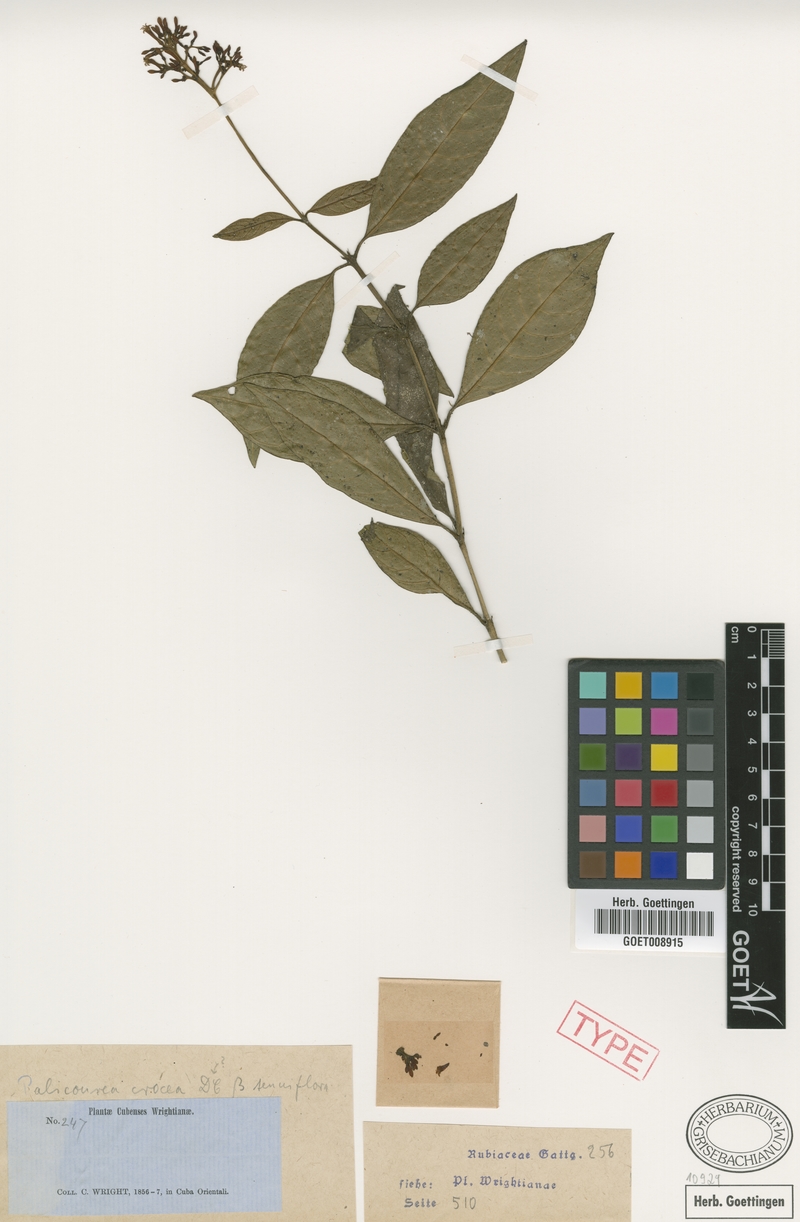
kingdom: Plantae
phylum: Tracheophyta
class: Magnoliopsida
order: Gentianales
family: Rubiaceae
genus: Palicourea
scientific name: Palicourea crocea
